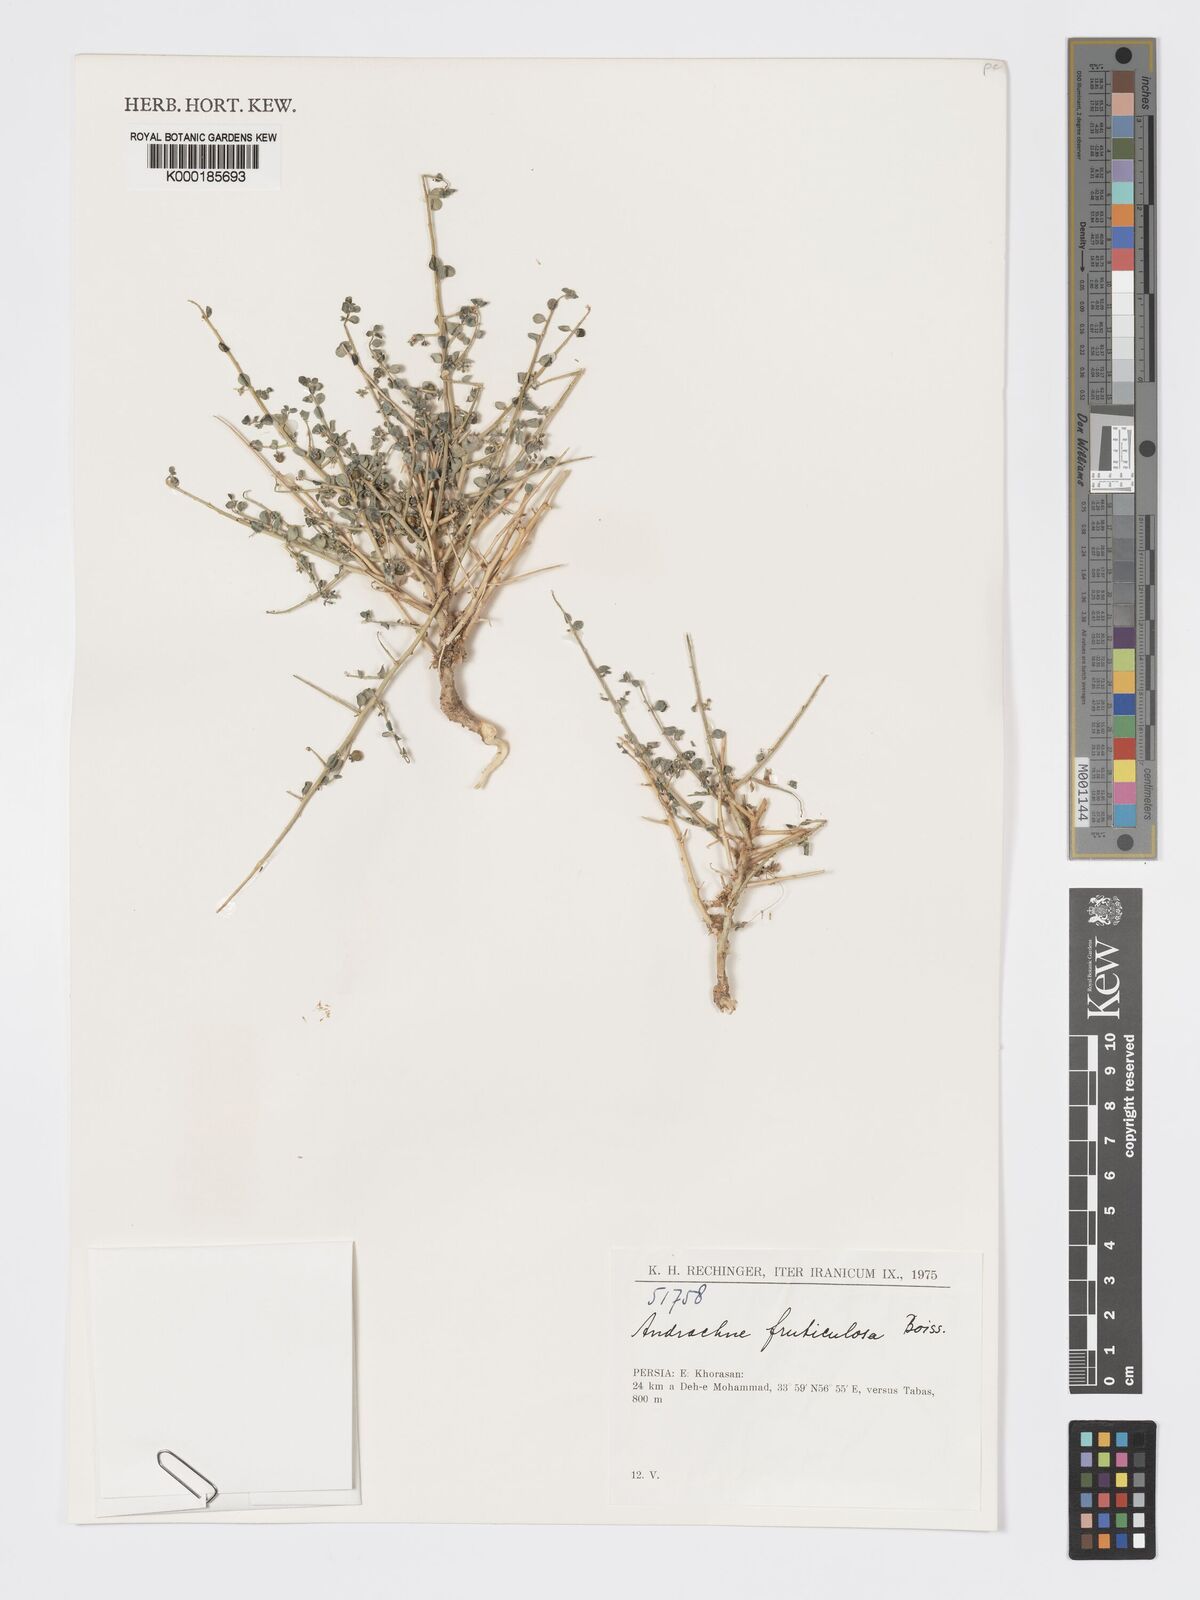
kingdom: Plantae
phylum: Tracheophyta
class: Magnoliopsida
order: Malpighiales
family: Phyllanthaceae
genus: Andrachne
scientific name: Andrachne fruticulosa
